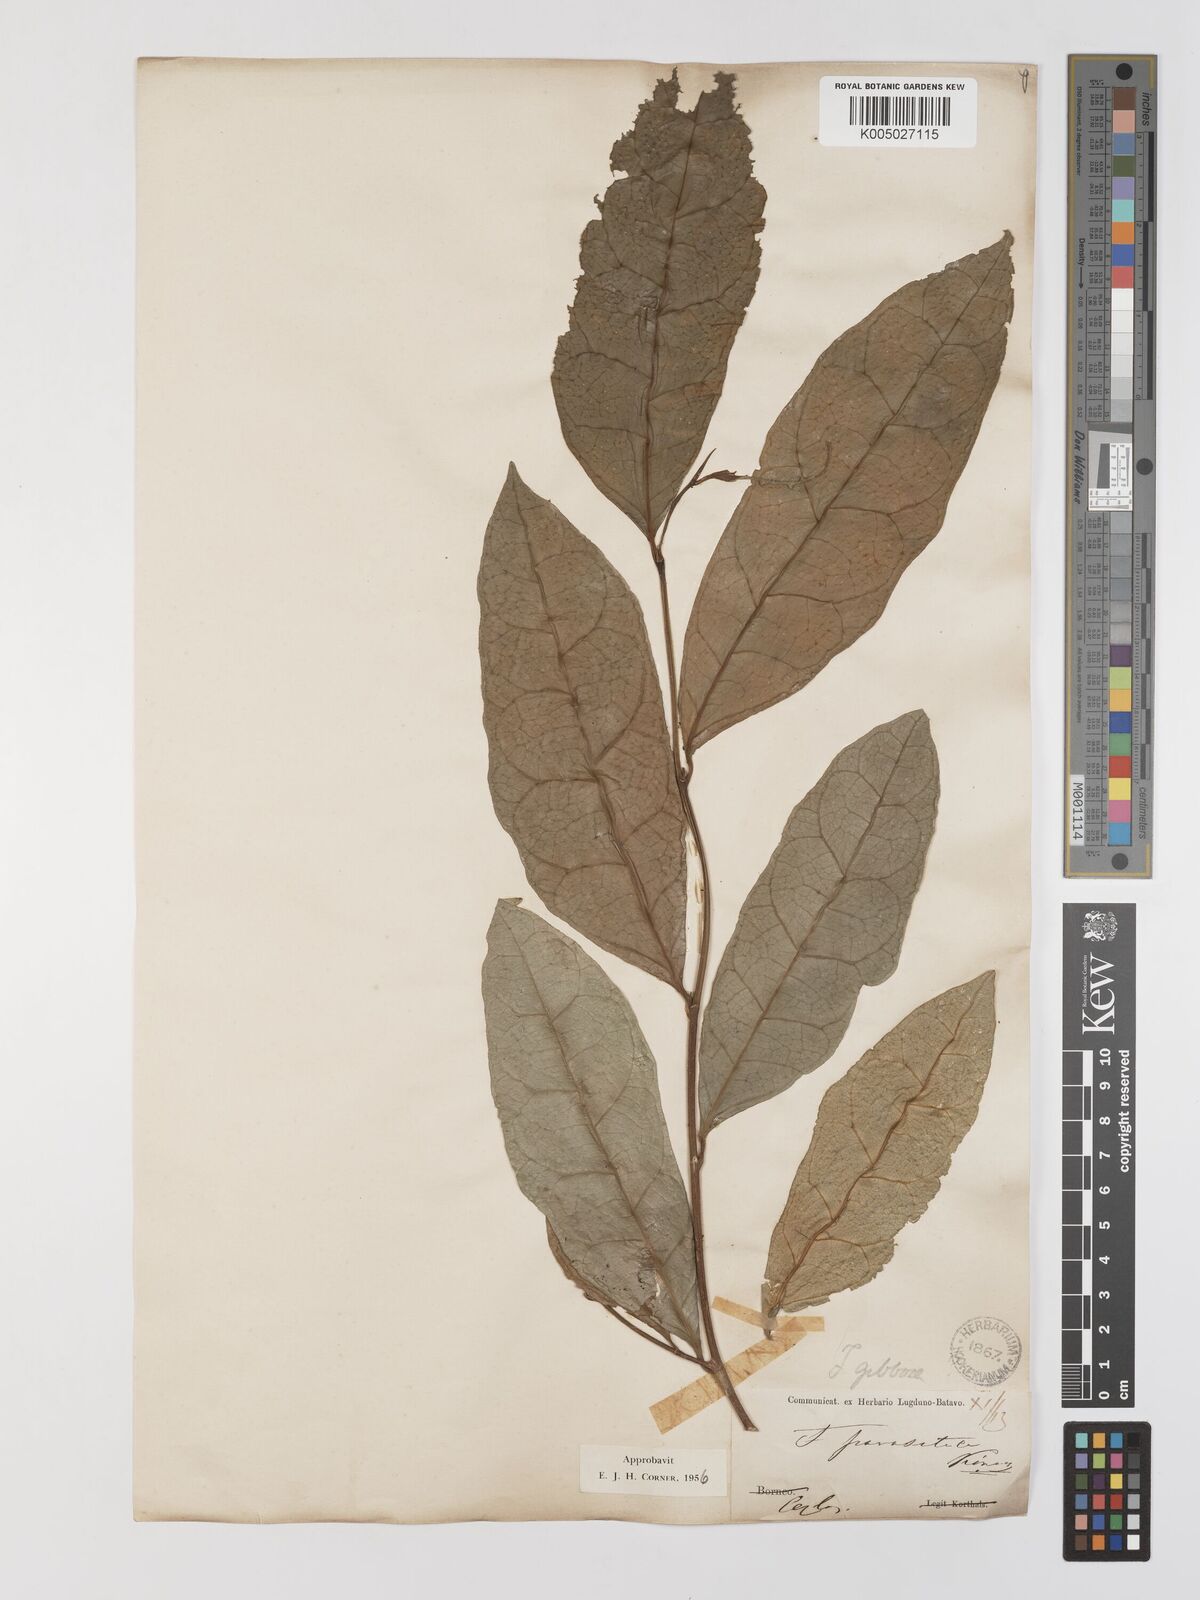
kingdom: Plantae
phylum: Tracheophyta
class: Magnoliopsida
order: Rosales
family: Moraceae
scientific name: Moraceae
